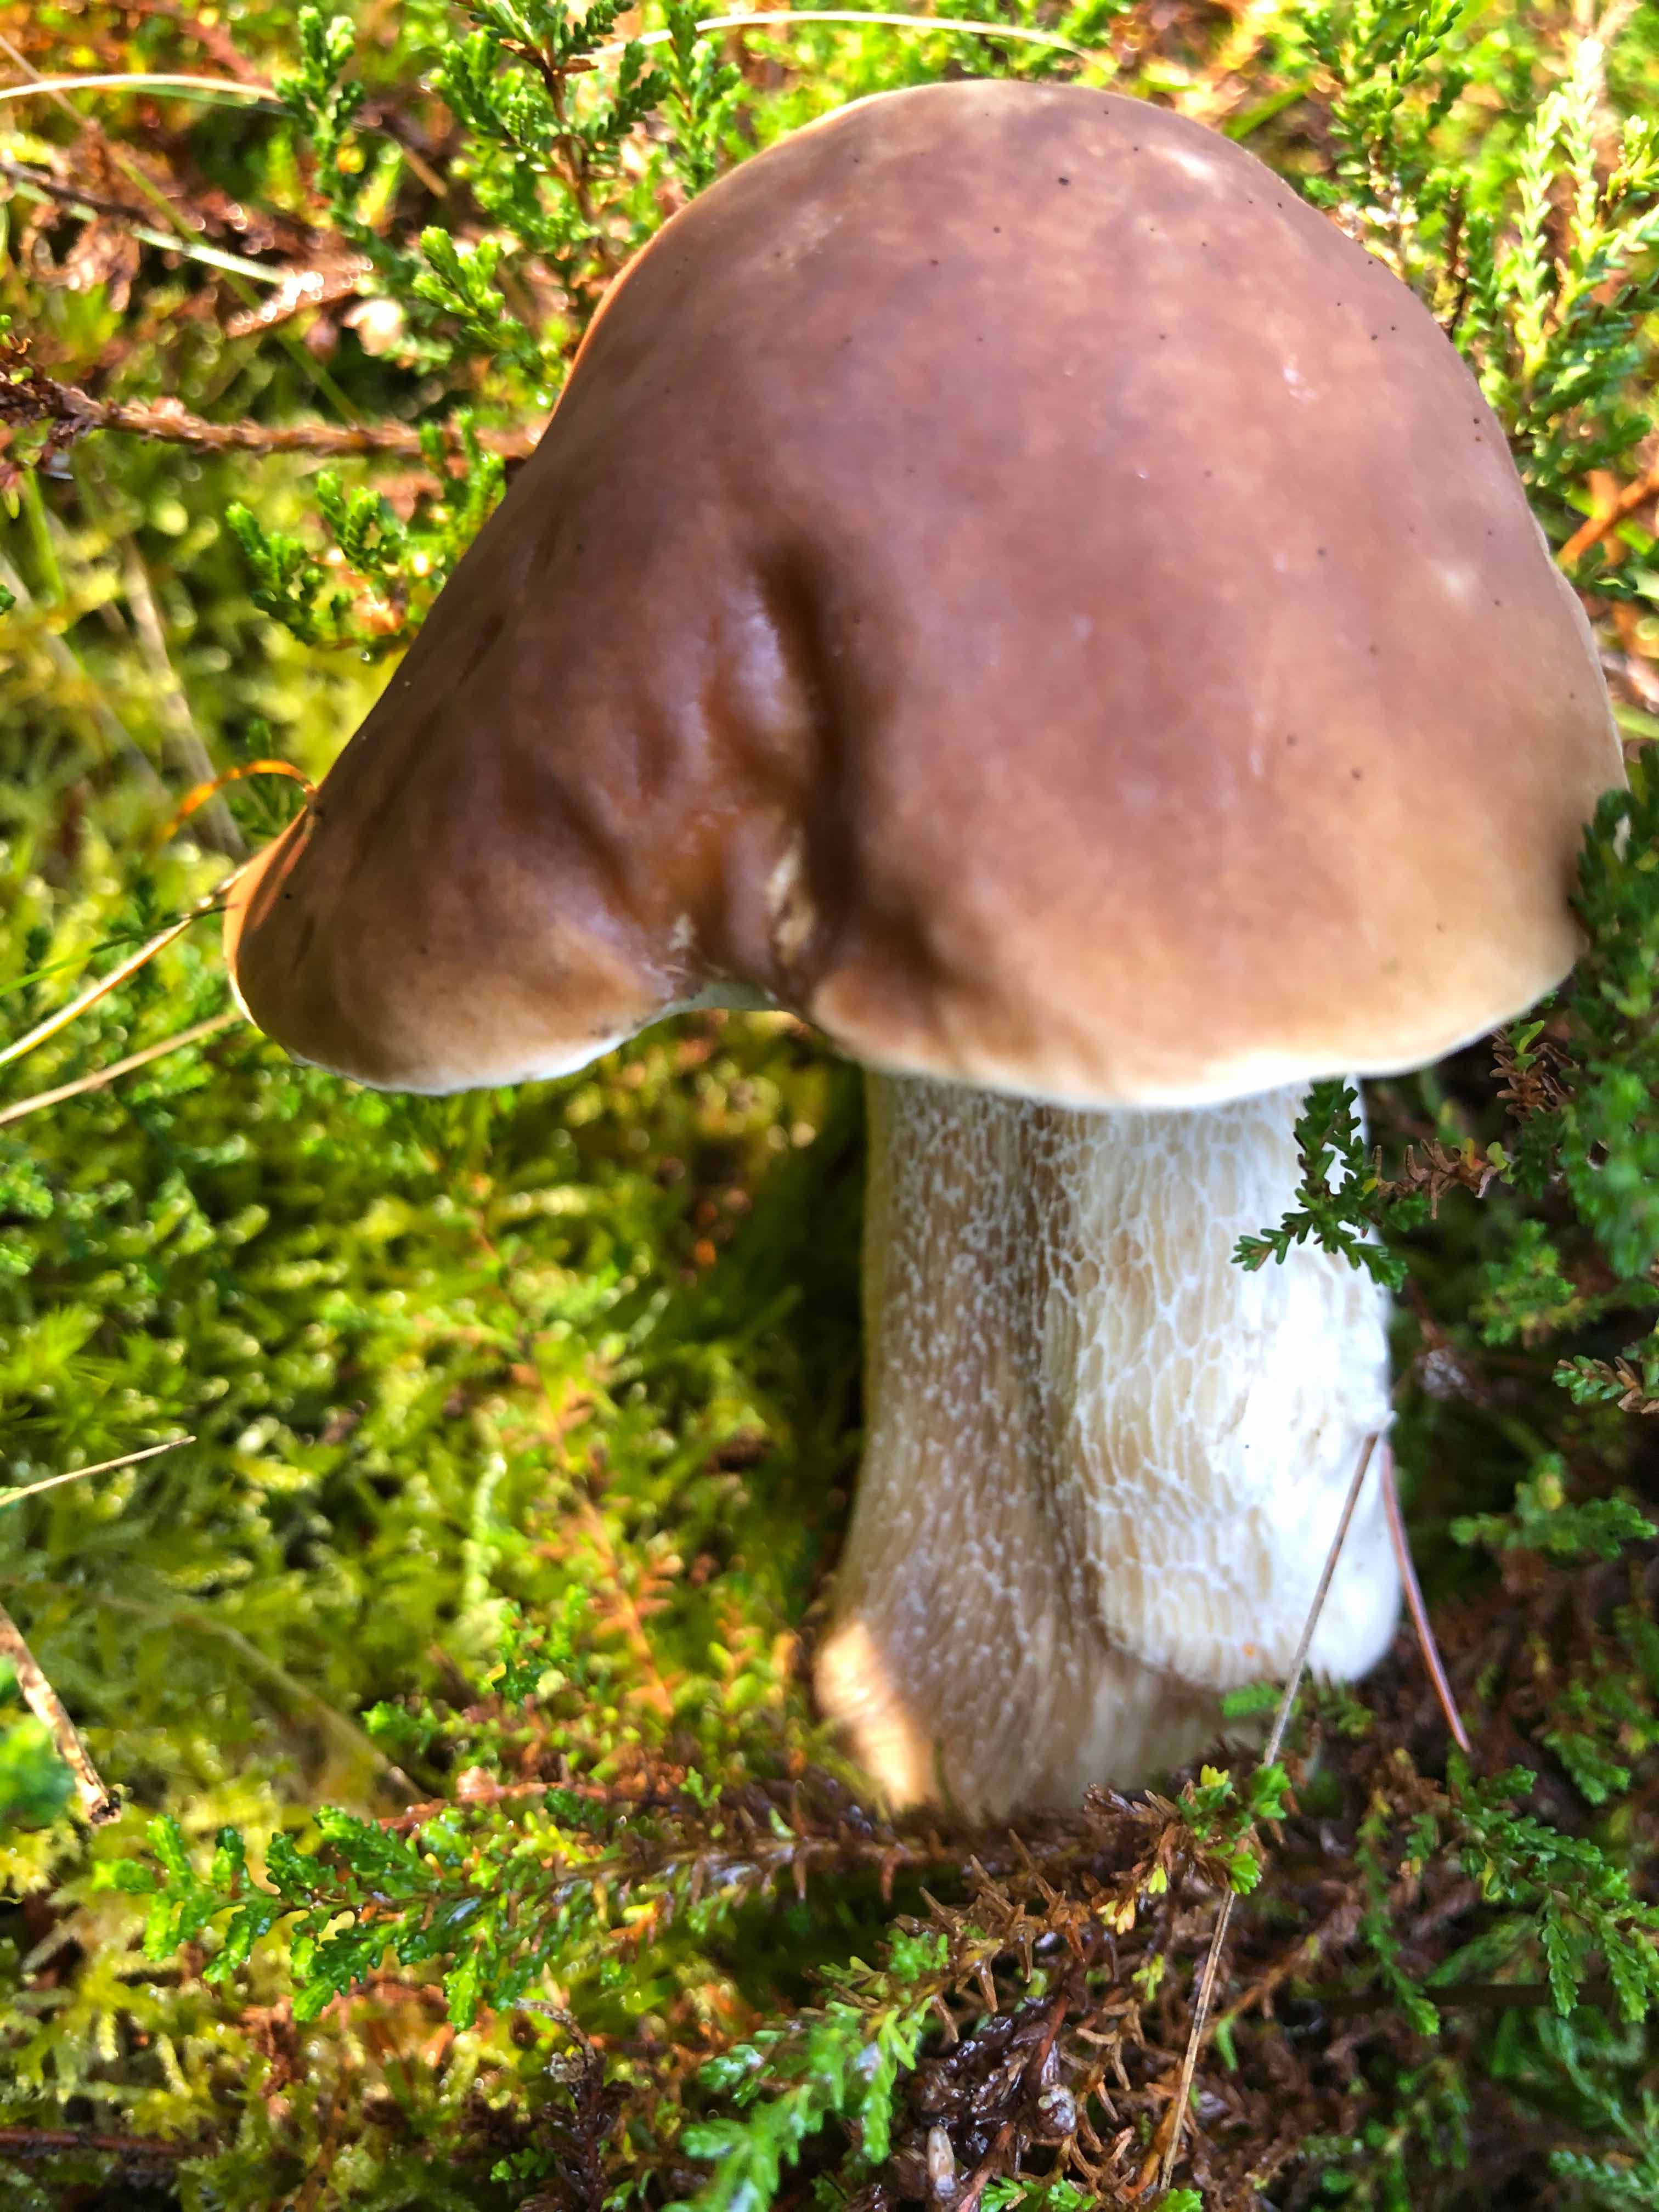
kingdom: Fungi
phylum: Basidiomycota
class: Agaricomycetes
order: Boletales
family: Boletaceae
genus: Boletus
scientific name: Boletus edulis
